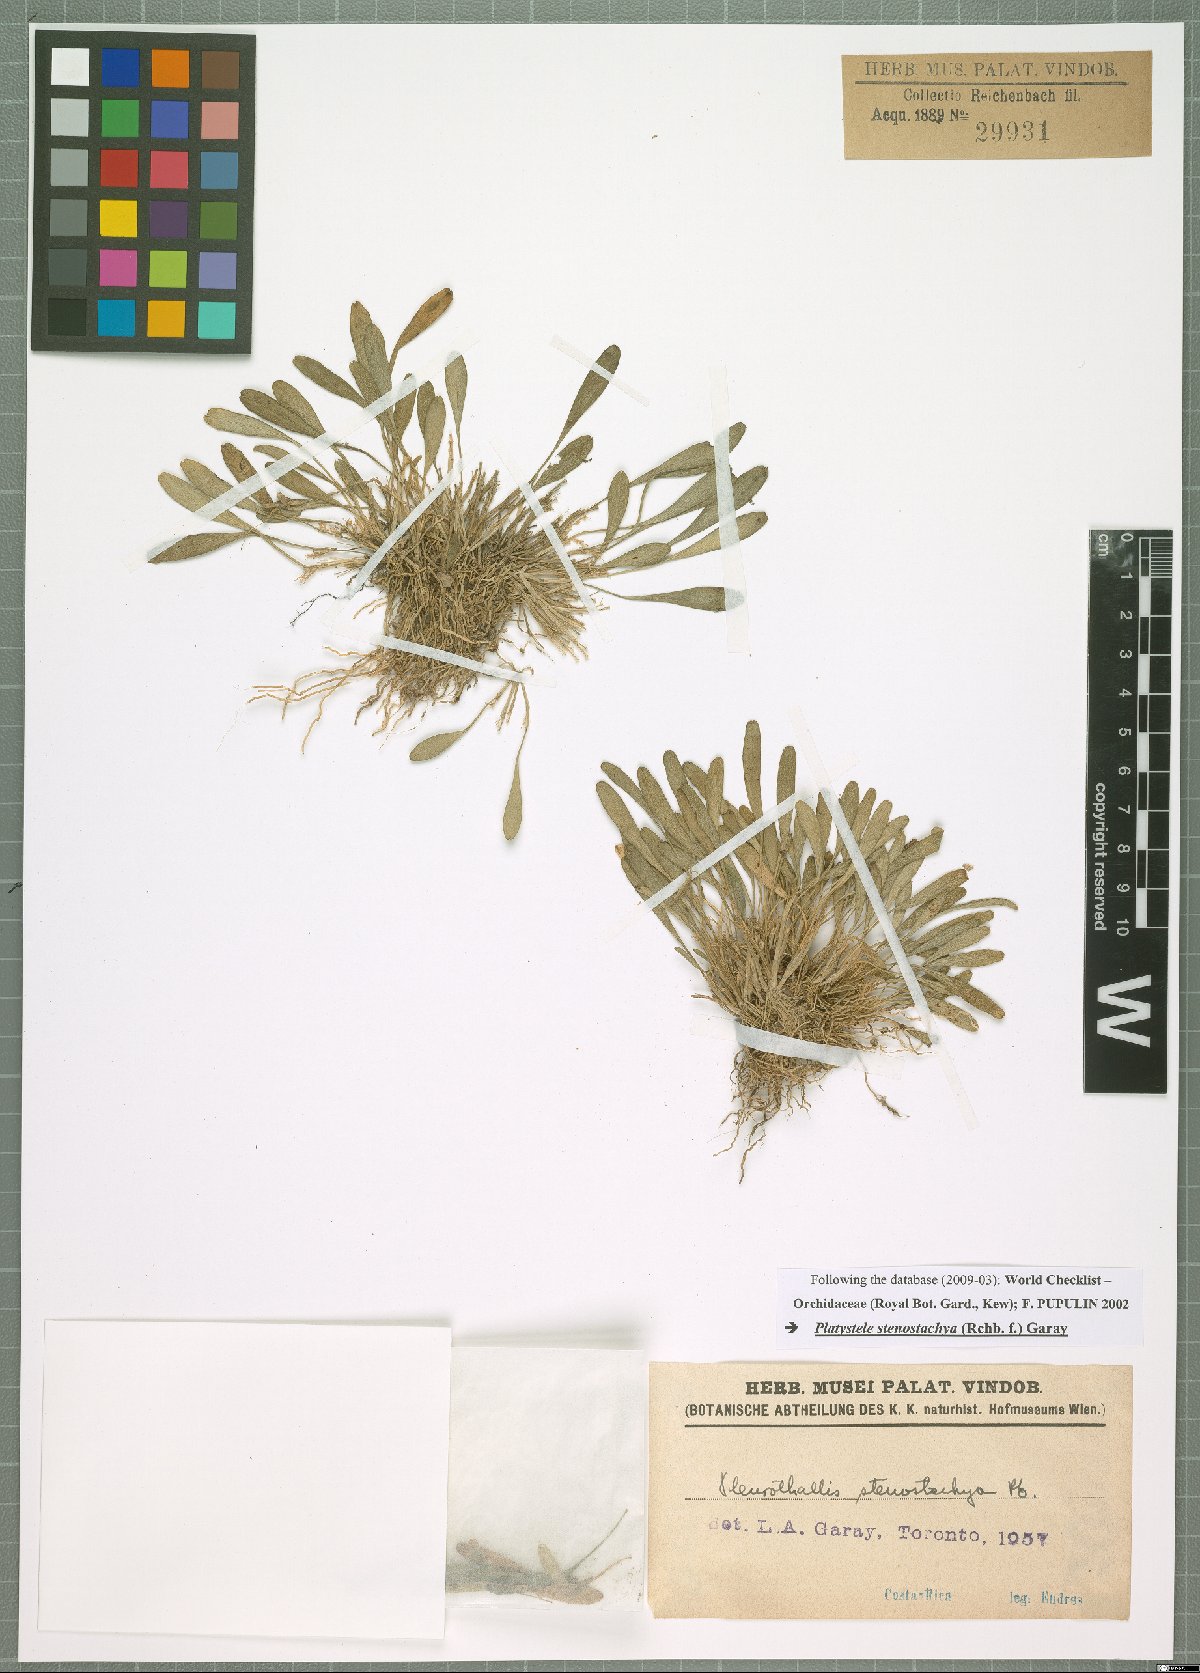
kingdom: Plantae
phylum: Tracheophyta
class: Liliopsida
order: Asparagales
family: Orchidaceae
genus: Platystele
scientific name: Platystele stenostachya
